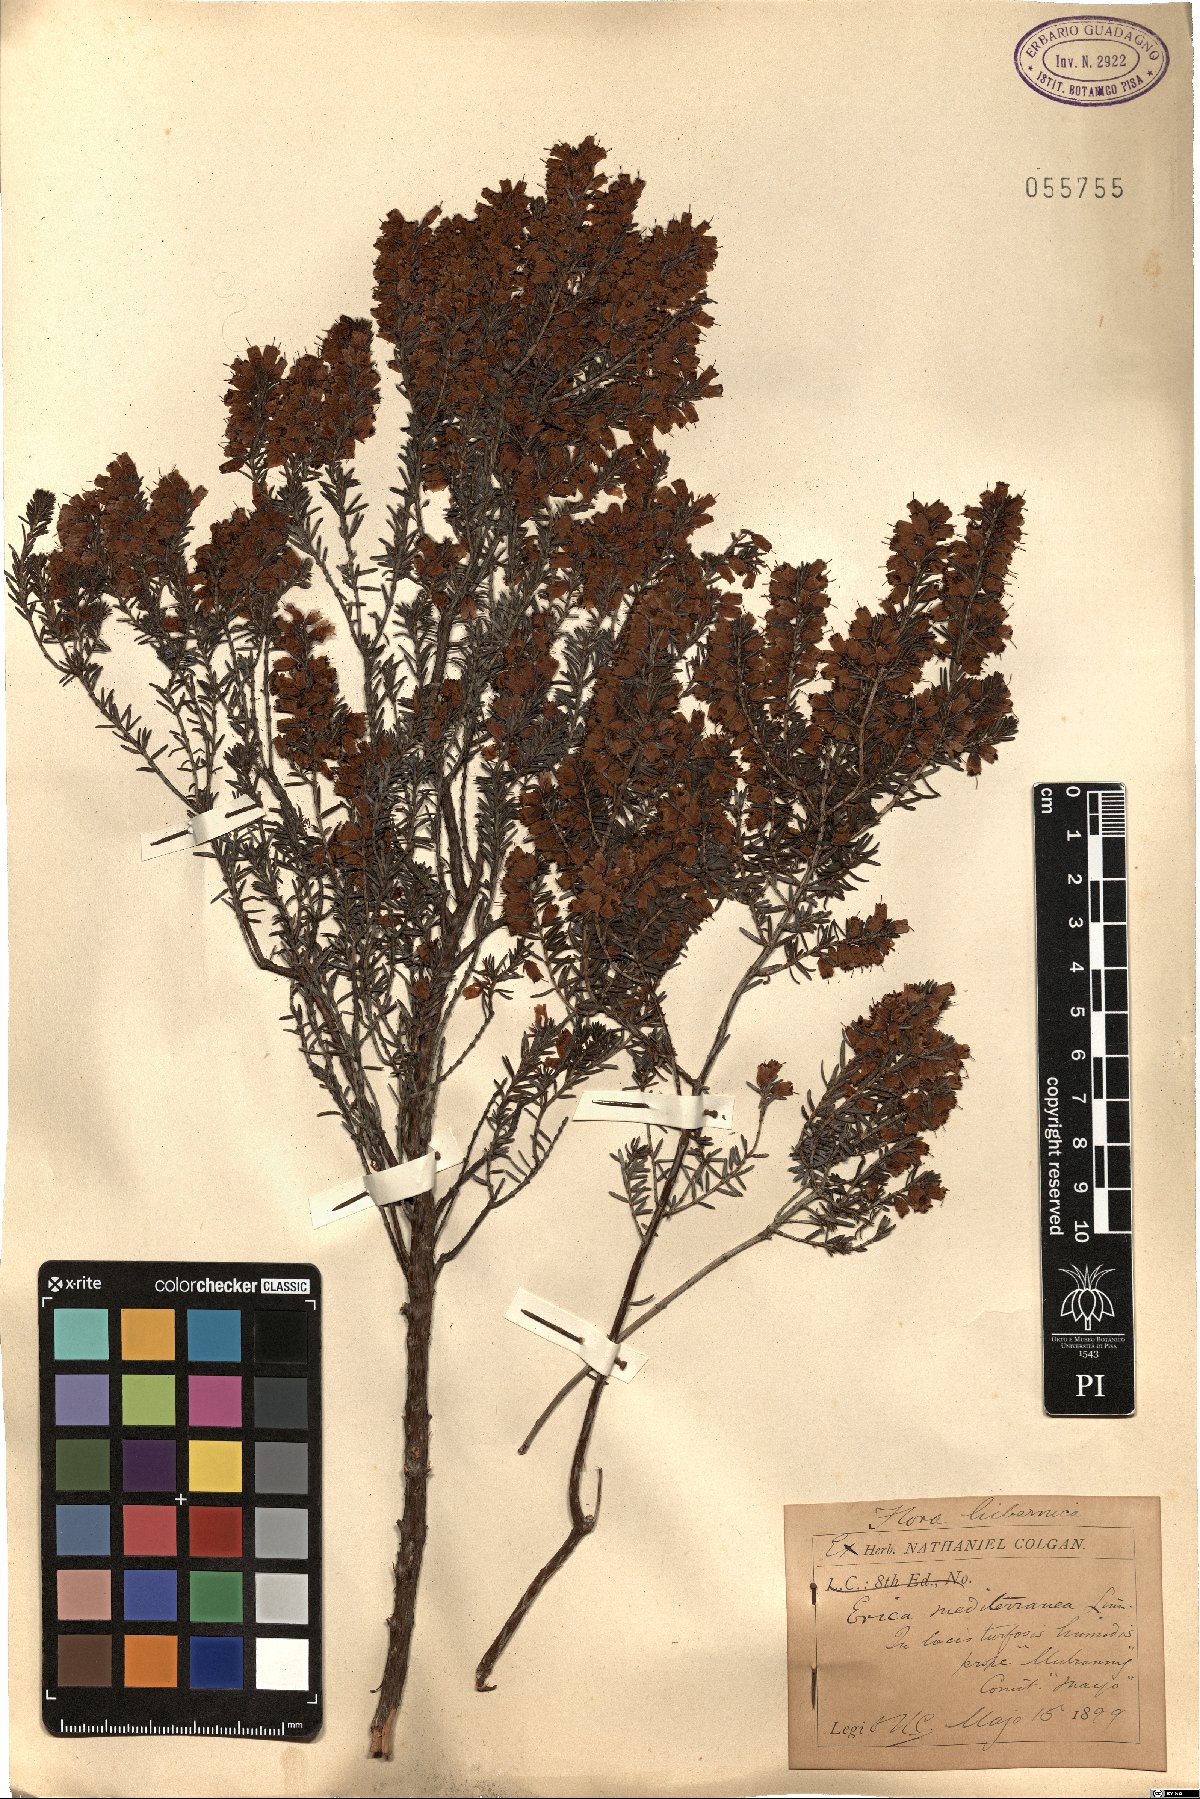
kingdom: Plantae
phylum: Tracheophyta
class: Magnoliopsida
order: Ericales
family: Ericaceae
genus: Erica
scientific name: Erica carnea
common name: Winter heath
